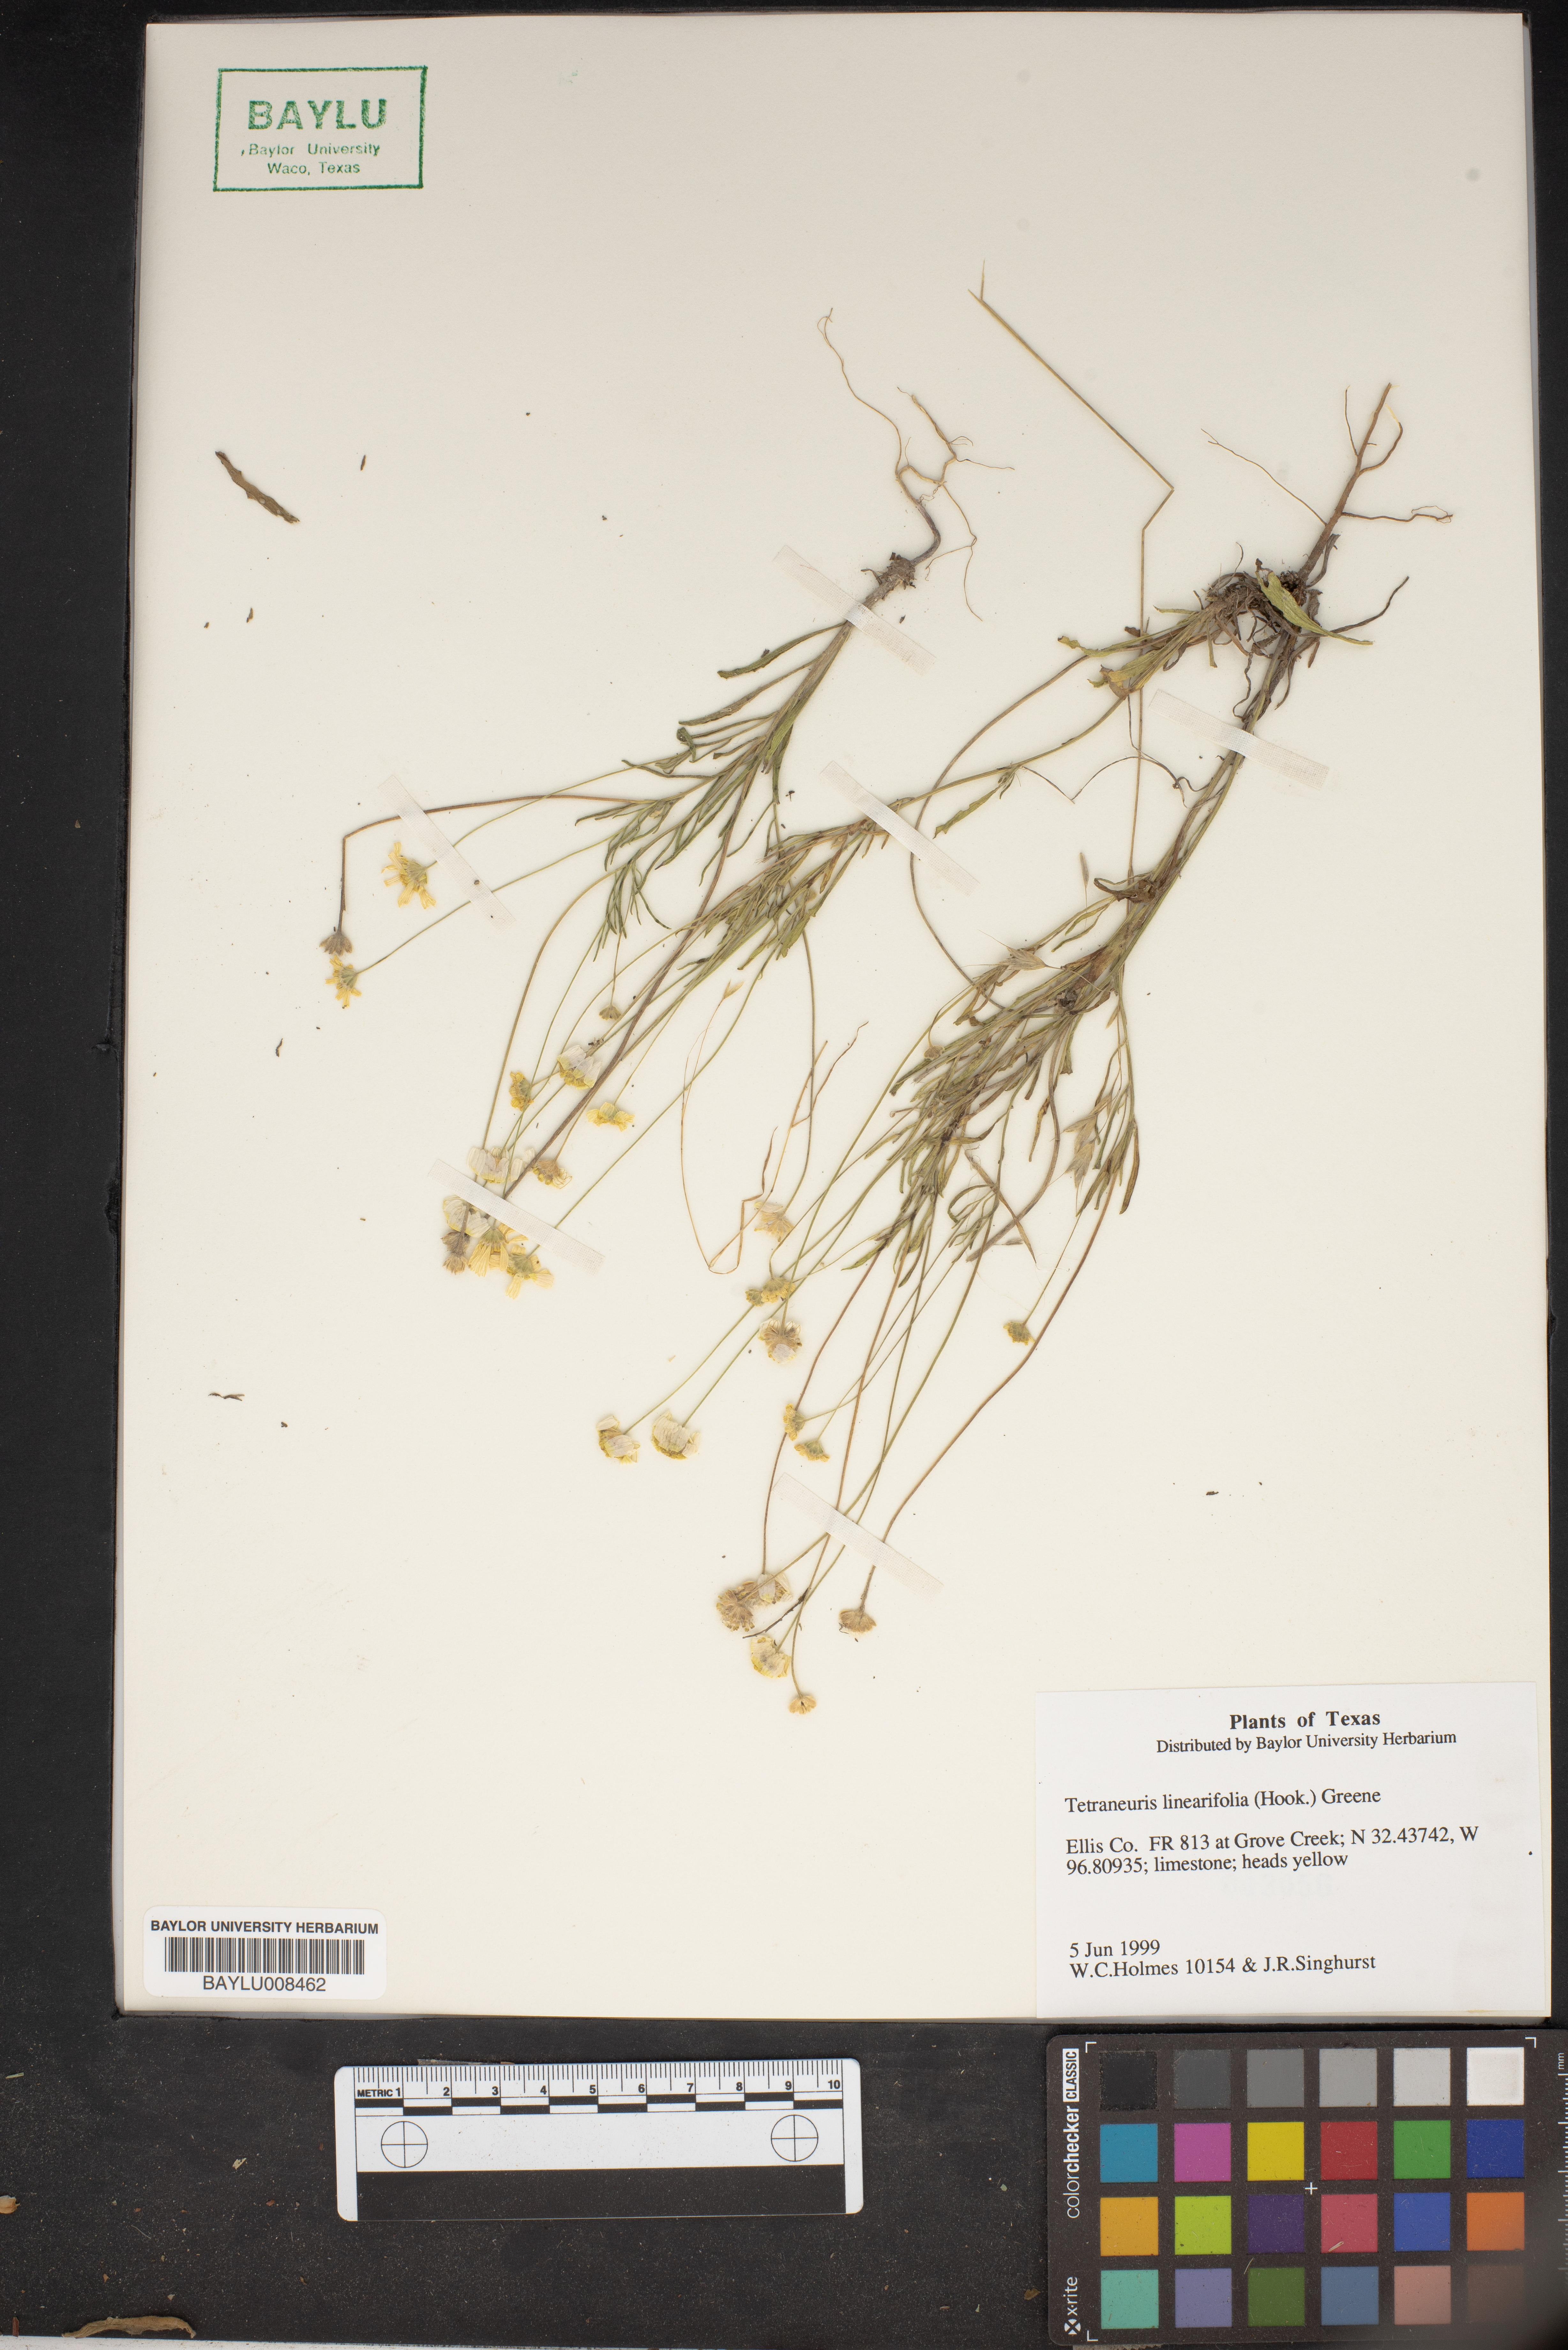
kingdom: Plantae
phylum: Tracheophyta
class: Magnoliopsida
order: Asterales
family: Asteraceae
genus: Tetraneuris
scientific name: Tetraneuris linearifolia
